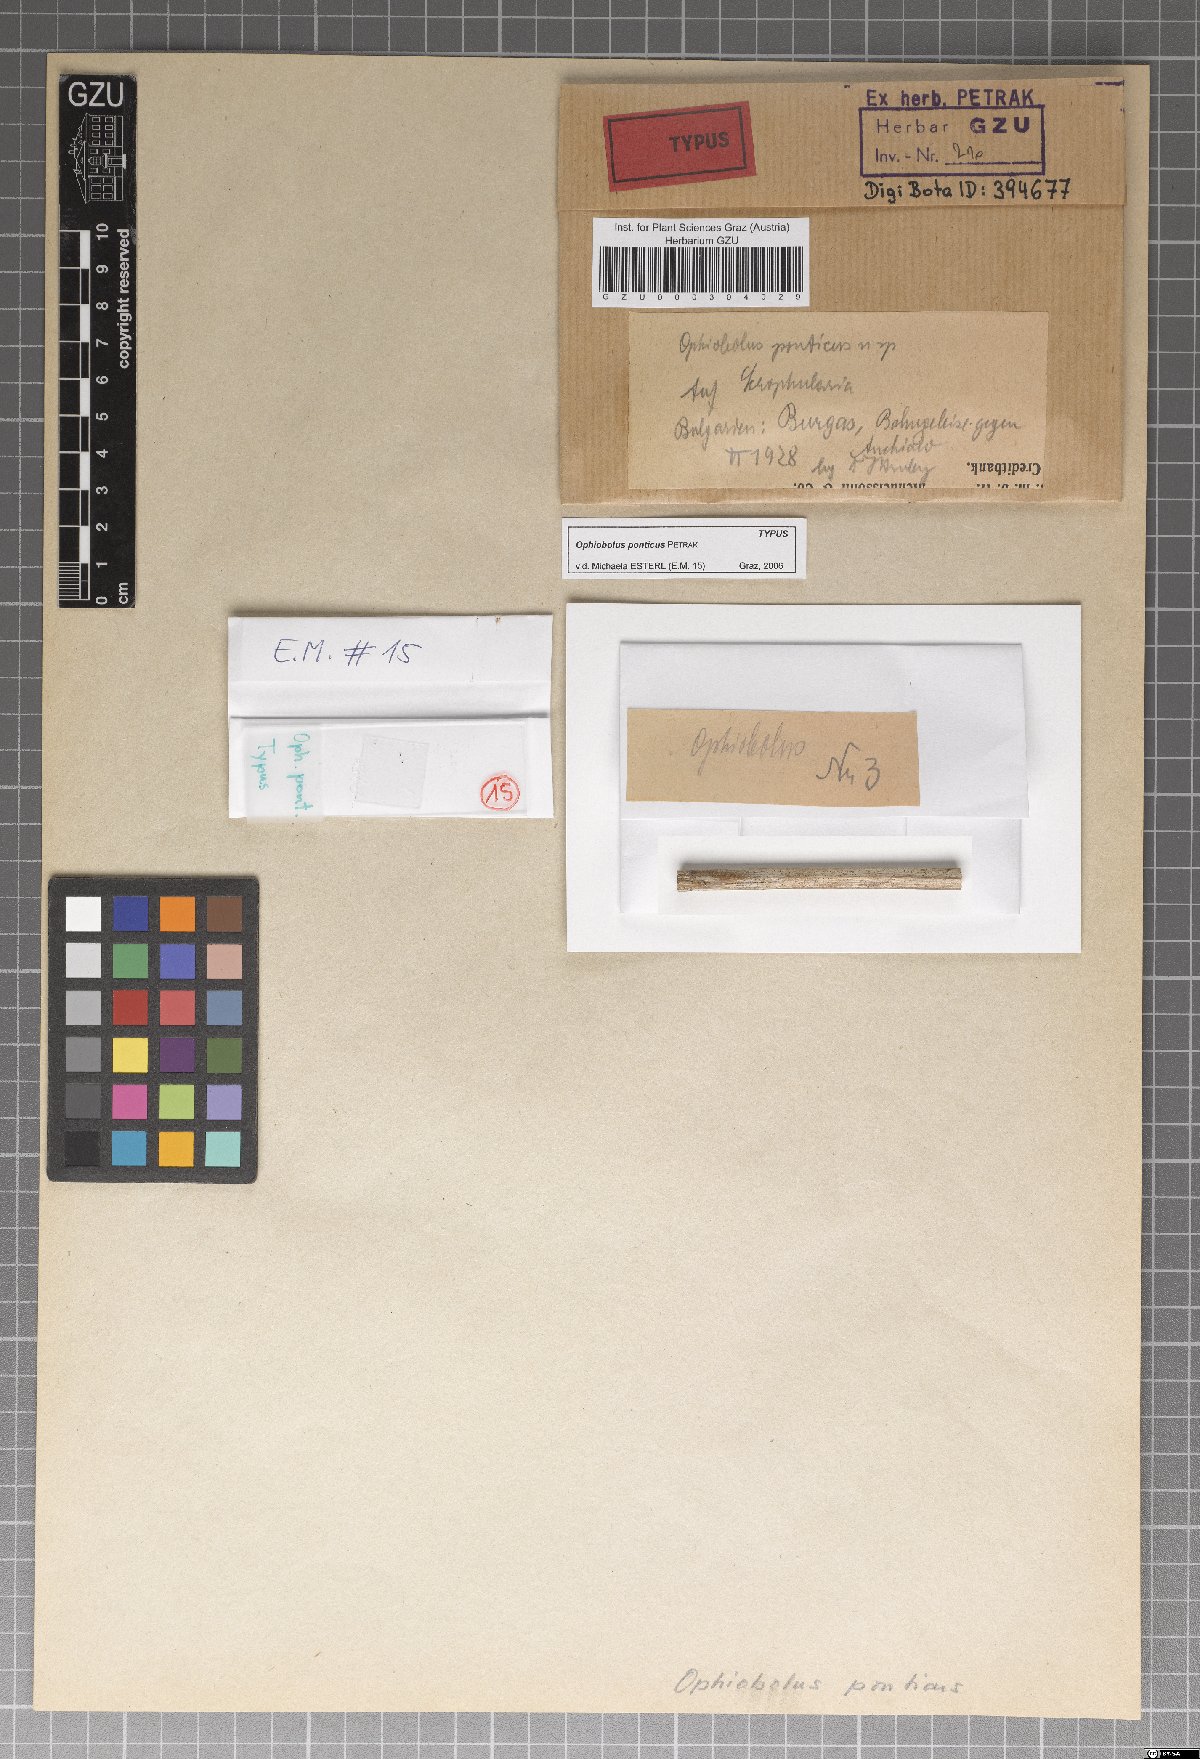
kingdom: Fungi
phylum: Ascomycota
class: Dothideomycetes
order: Pleosporales
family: Phaeosphaeriaceae
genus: Nodulosphaeria
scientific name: Nodulosphaeria pontica
